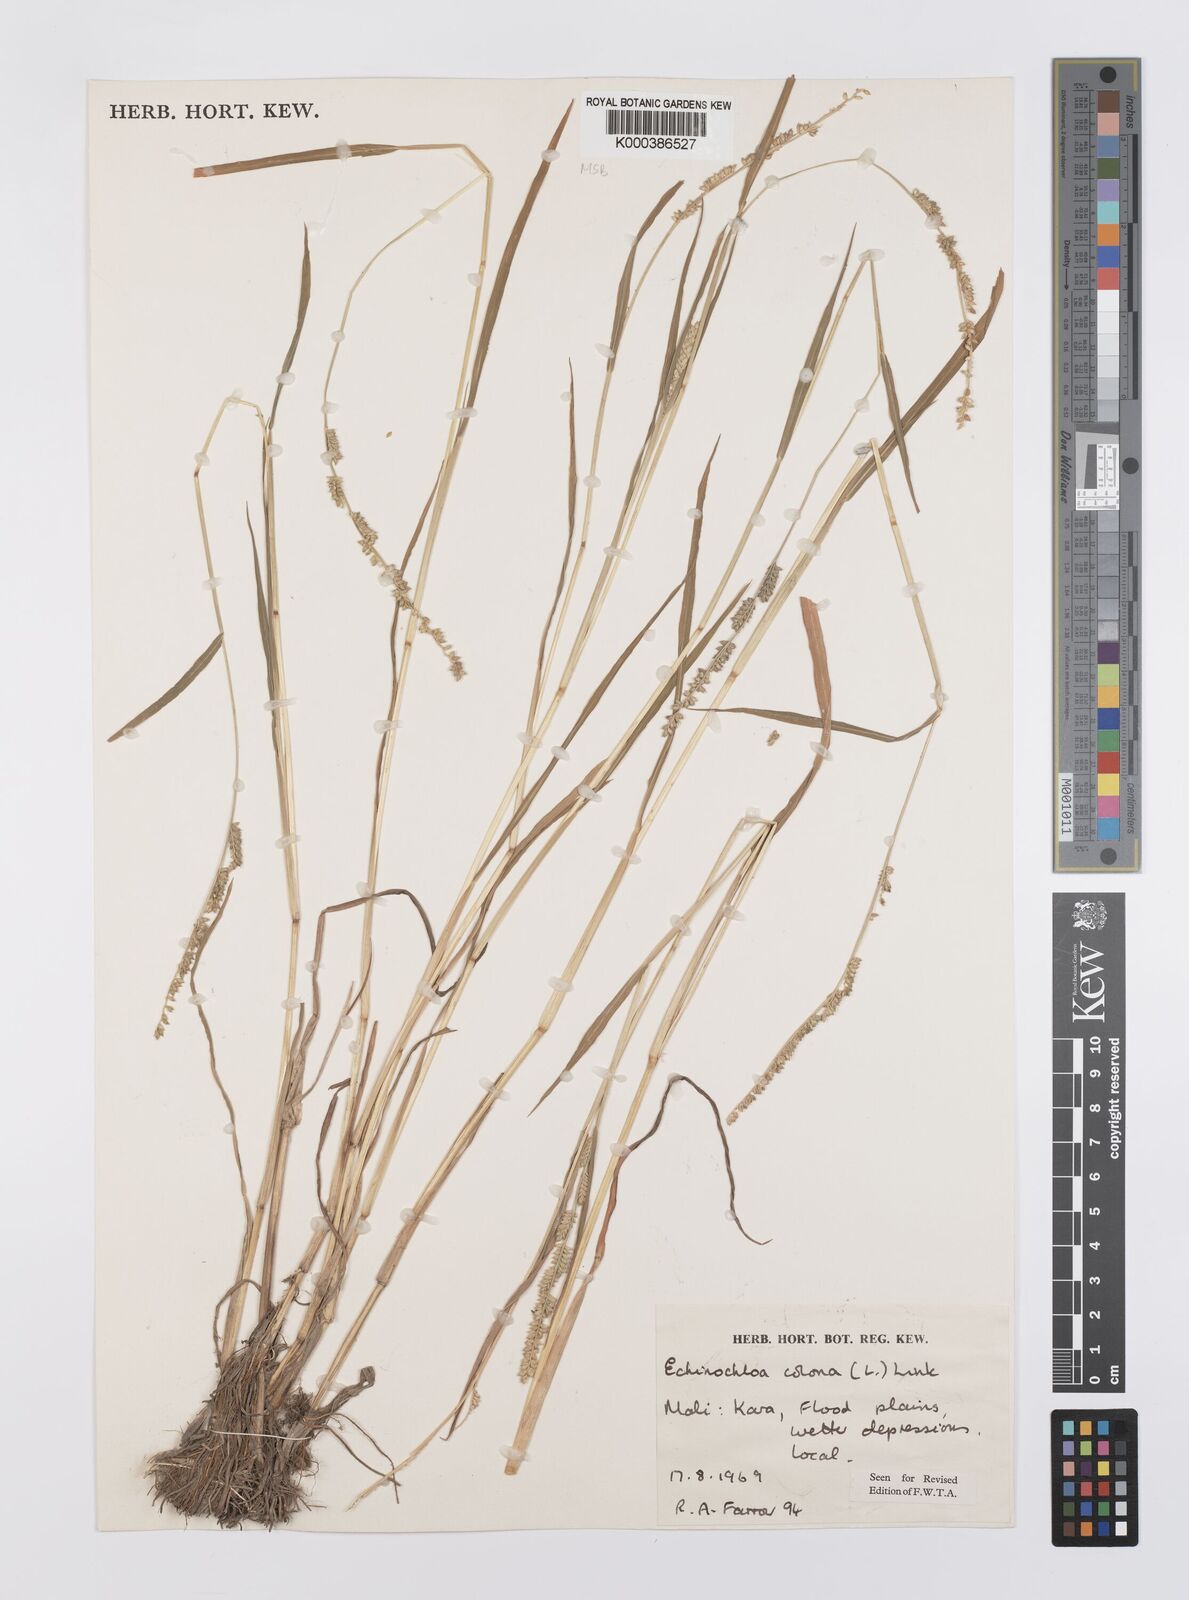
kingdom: Plantae
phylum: Tracheophyta
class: Liliopsida
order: Poales
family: Poaceae
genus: Echinochloa
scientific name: Echinochloa colonum
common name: Jungle rice
